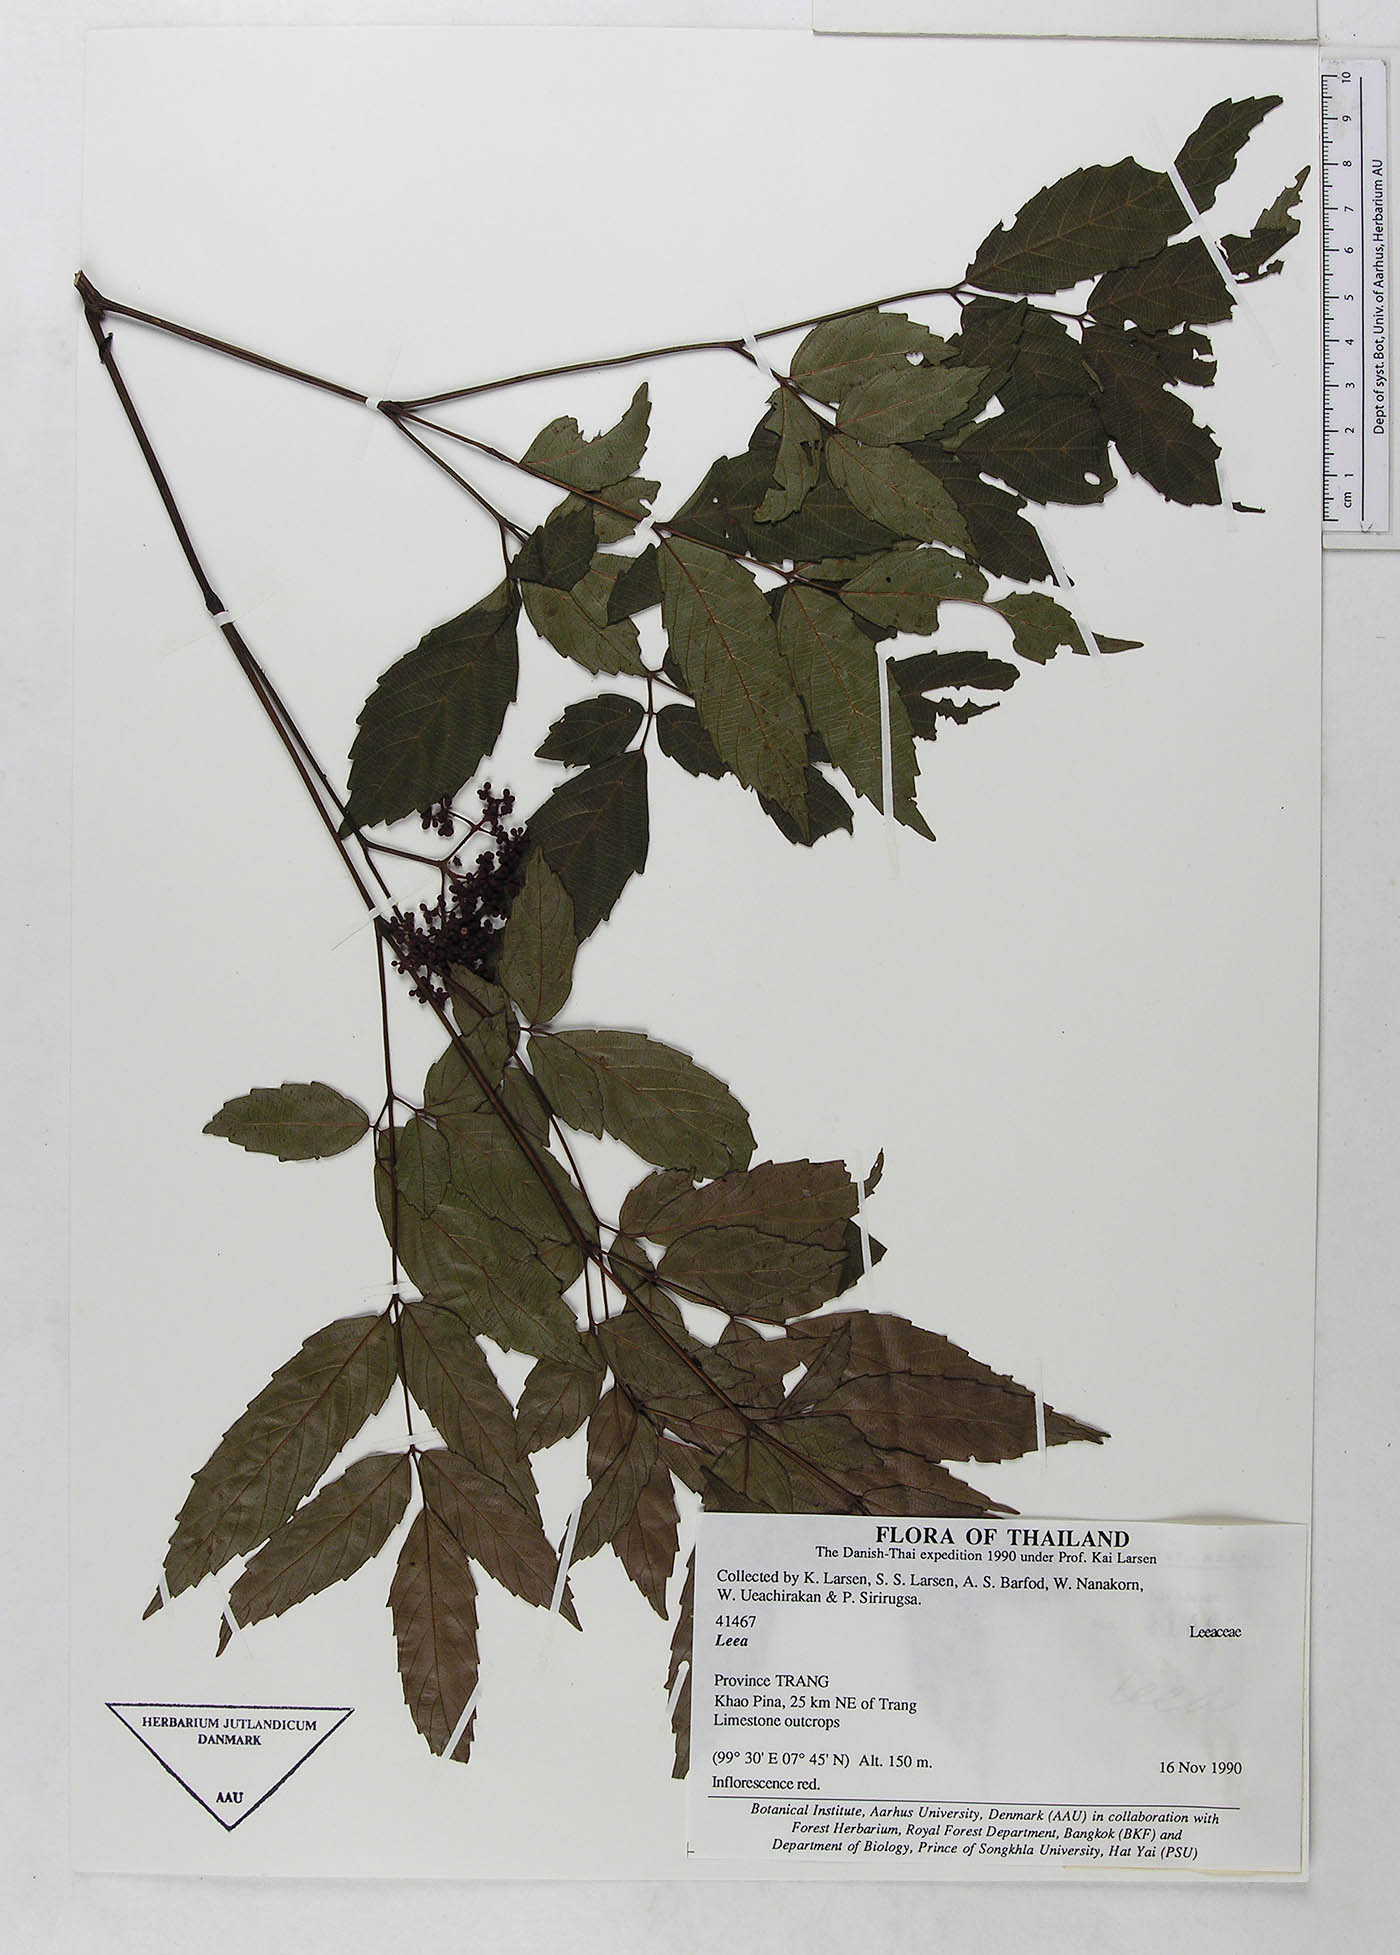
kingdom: Plantae
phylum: Tracheophyta
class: Magnoliopsida
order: Vitales
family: Vitaceae
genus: Leea
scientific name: Leea setuligera
